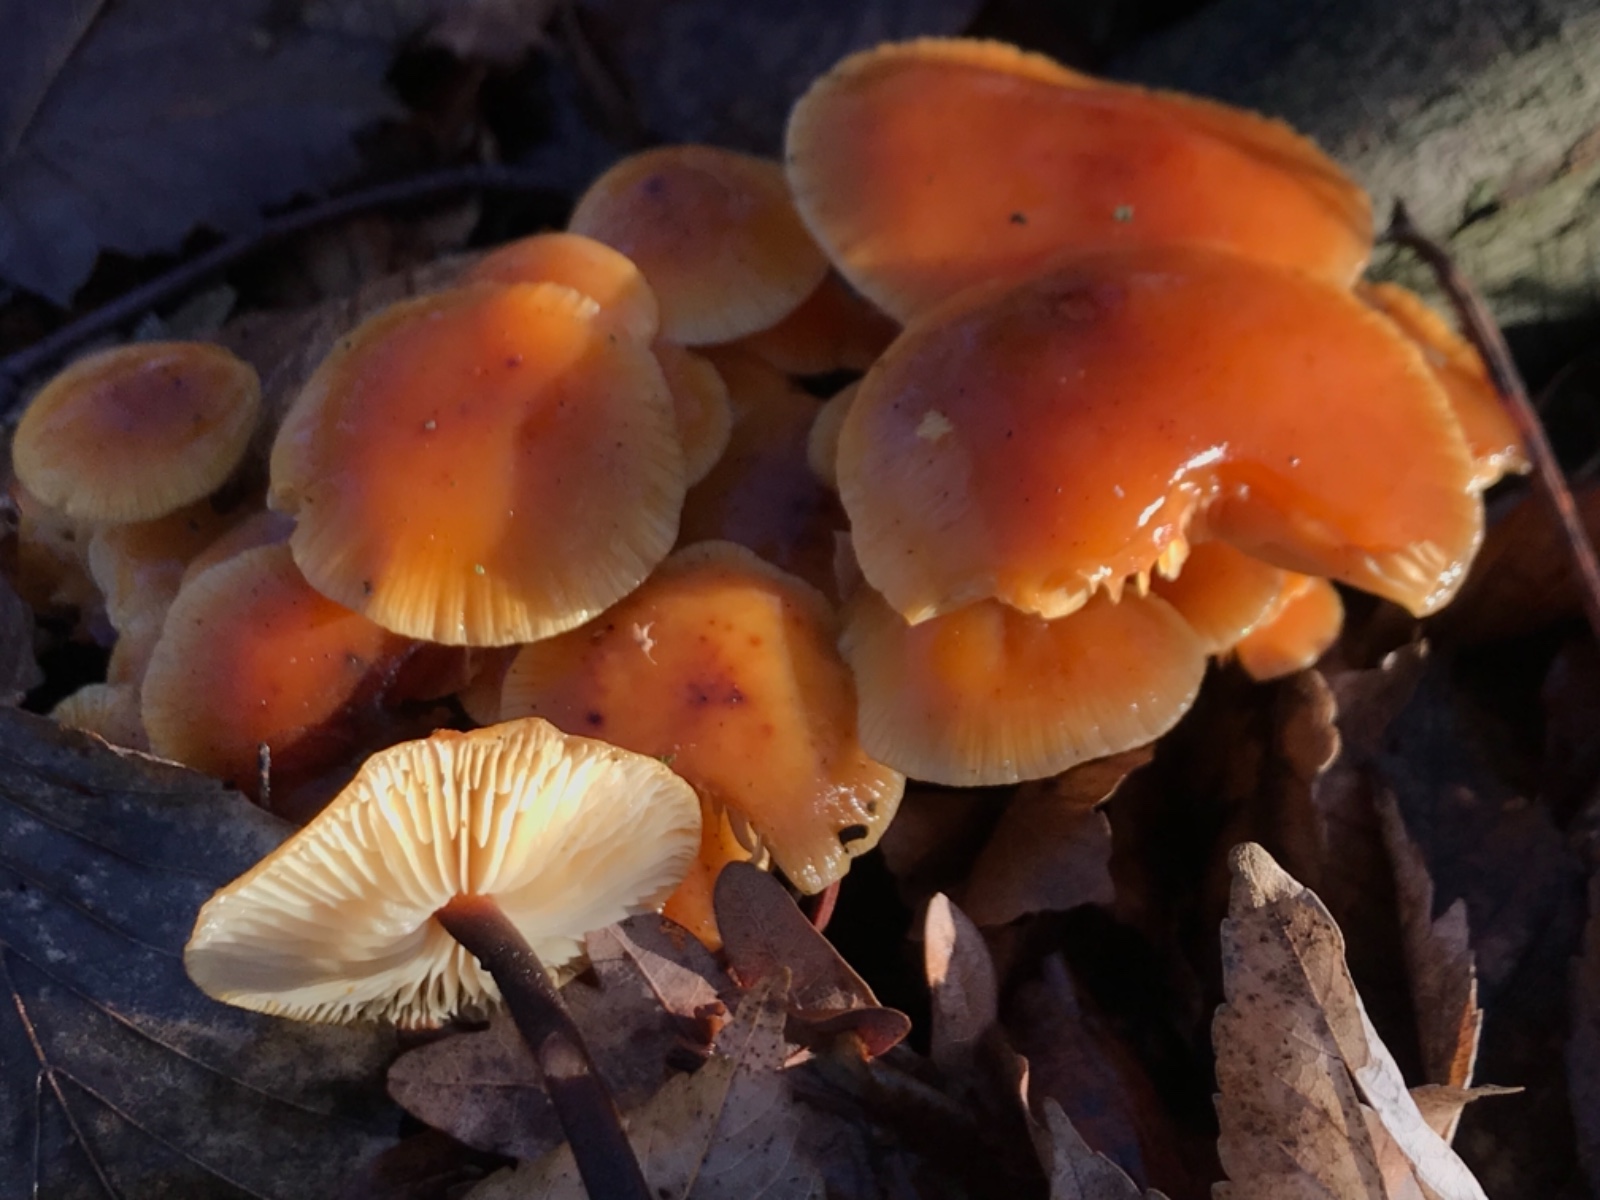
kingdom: Fungi
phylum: Basidiomycota
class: Agaricomycetes
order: Agaricales
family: Physalacriaceae
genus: Flammulina
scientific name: Flammulina
